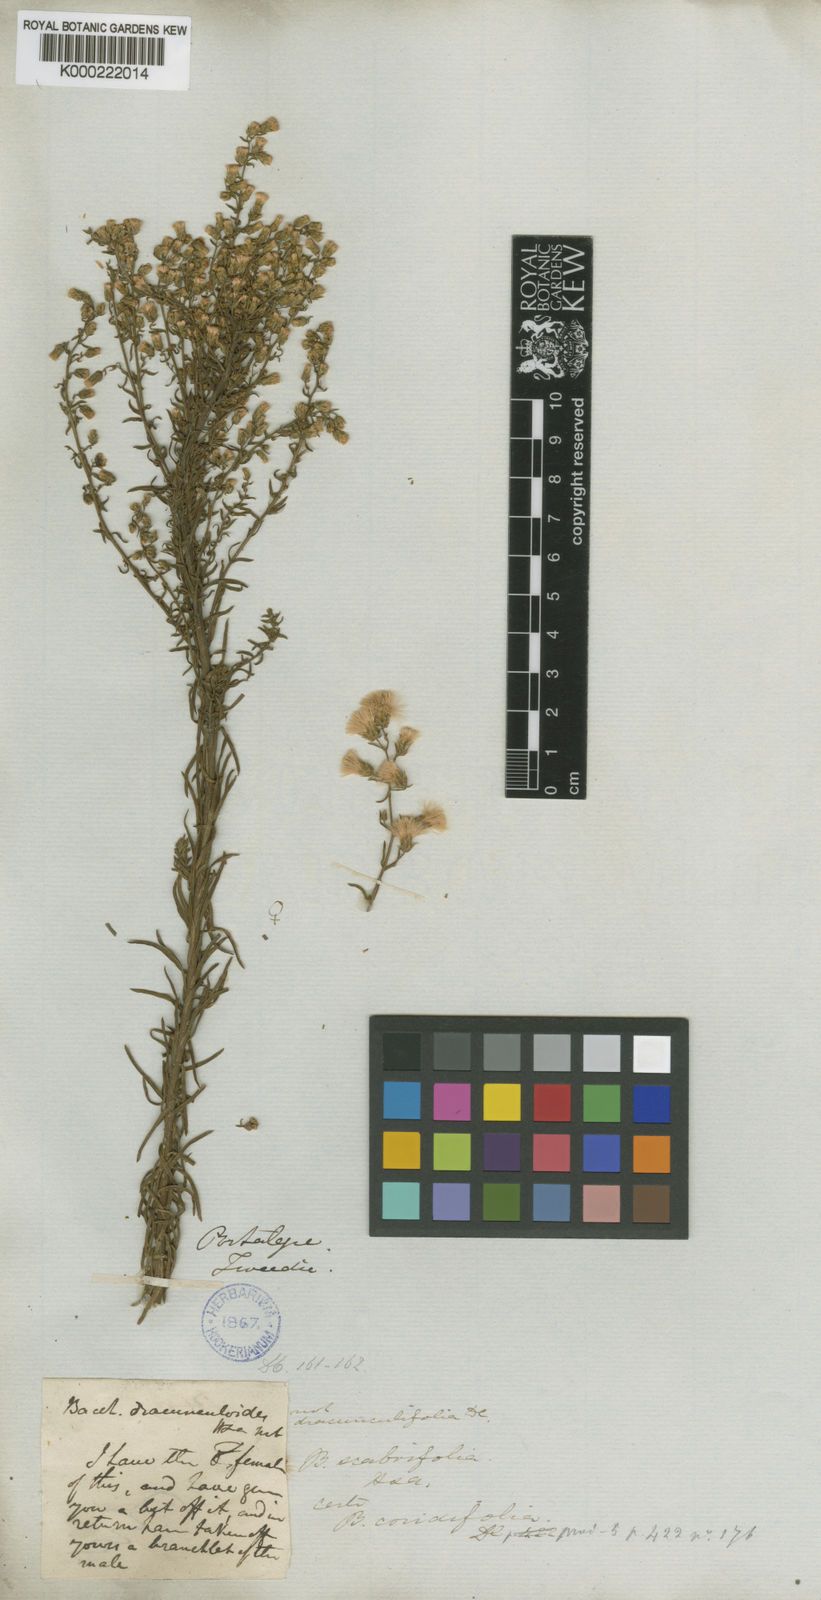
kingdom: Plantae
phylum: Tracheophyta
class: Magnoliopsida
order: Asterales
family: Asteraceae
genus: Baccharis
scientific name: Baccharis coridifolia
